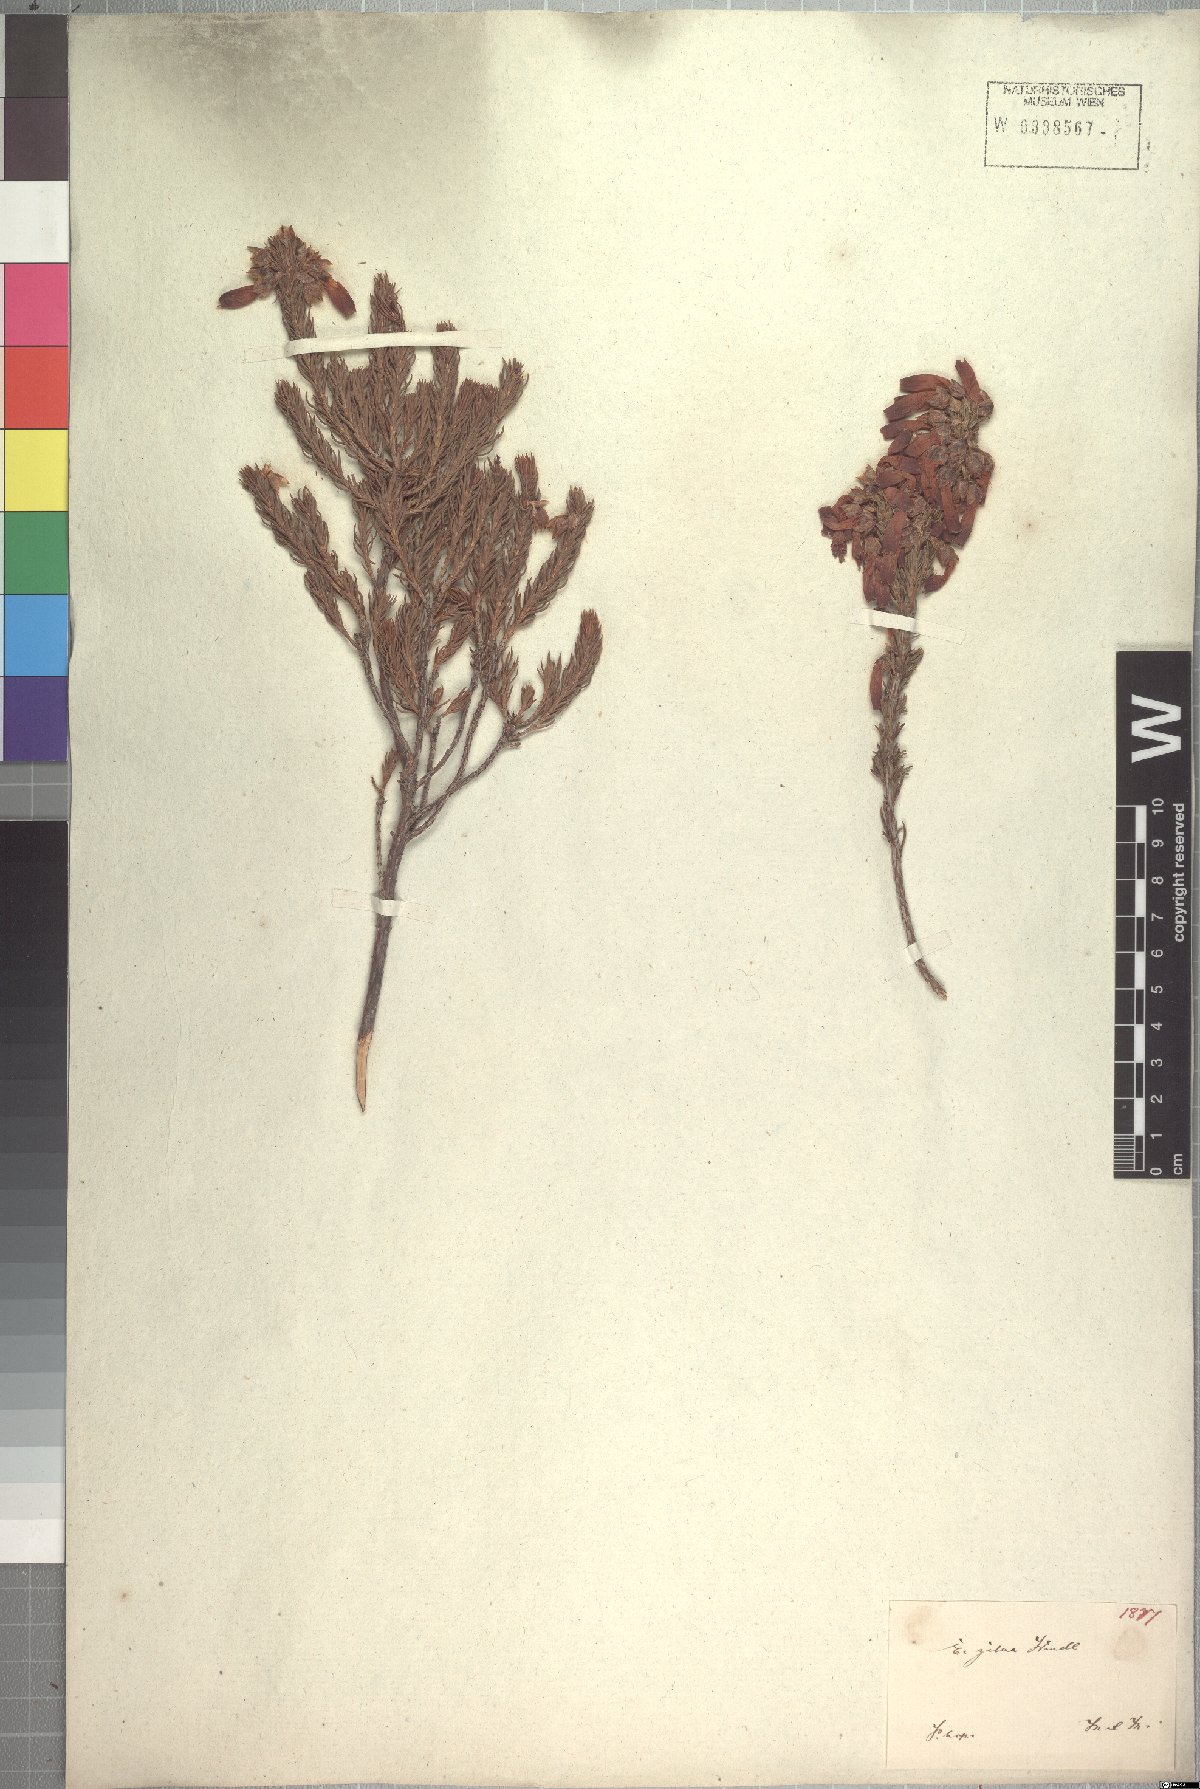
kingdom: Plantae
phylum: Tracheophyta
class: Magnoliopsida
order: Ericales
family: Ericaceae
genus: Erica
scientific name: Erica mammosa
